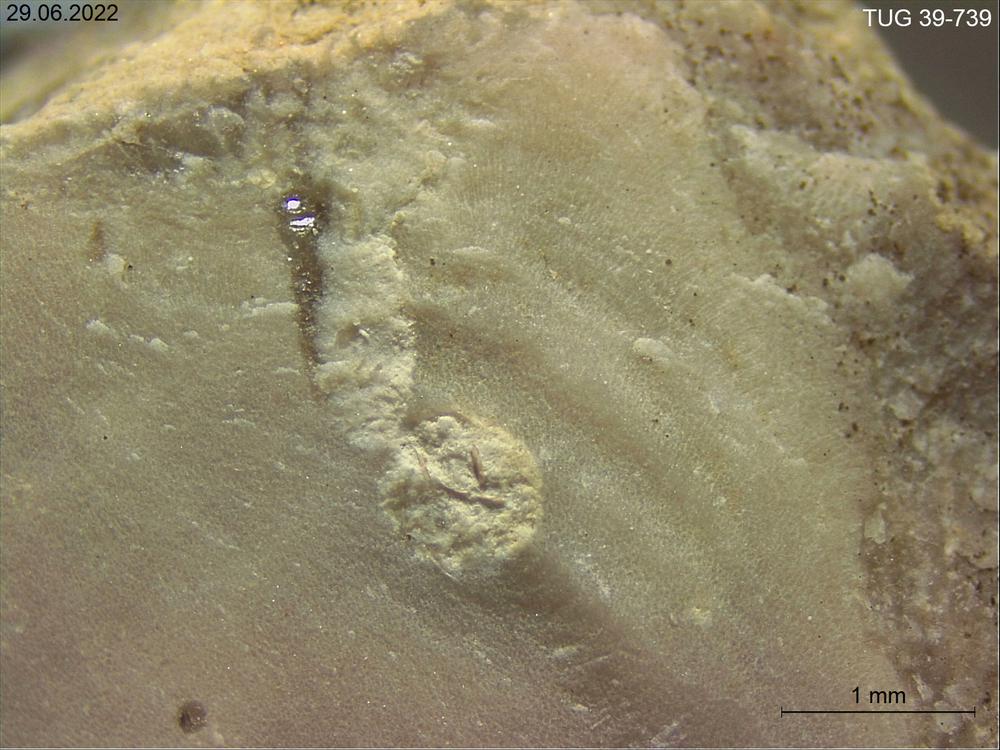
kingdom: Animalia
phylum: Porifera
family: Chaetetidae
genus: Solenopora
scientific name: Solenopora
